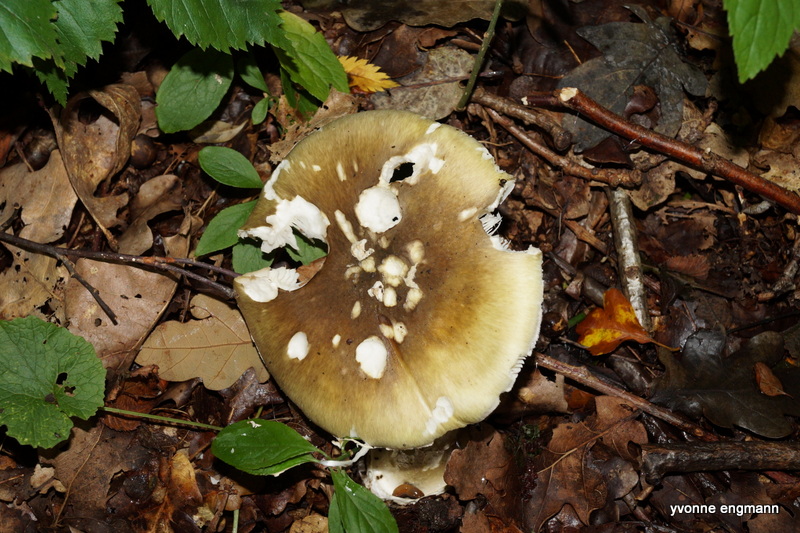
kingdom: Fungi
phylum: Basidiomycota
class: Agaricomycetes
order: Agaricales
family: Amanitaceae
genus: Amanita
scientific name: Amanita phalloides
